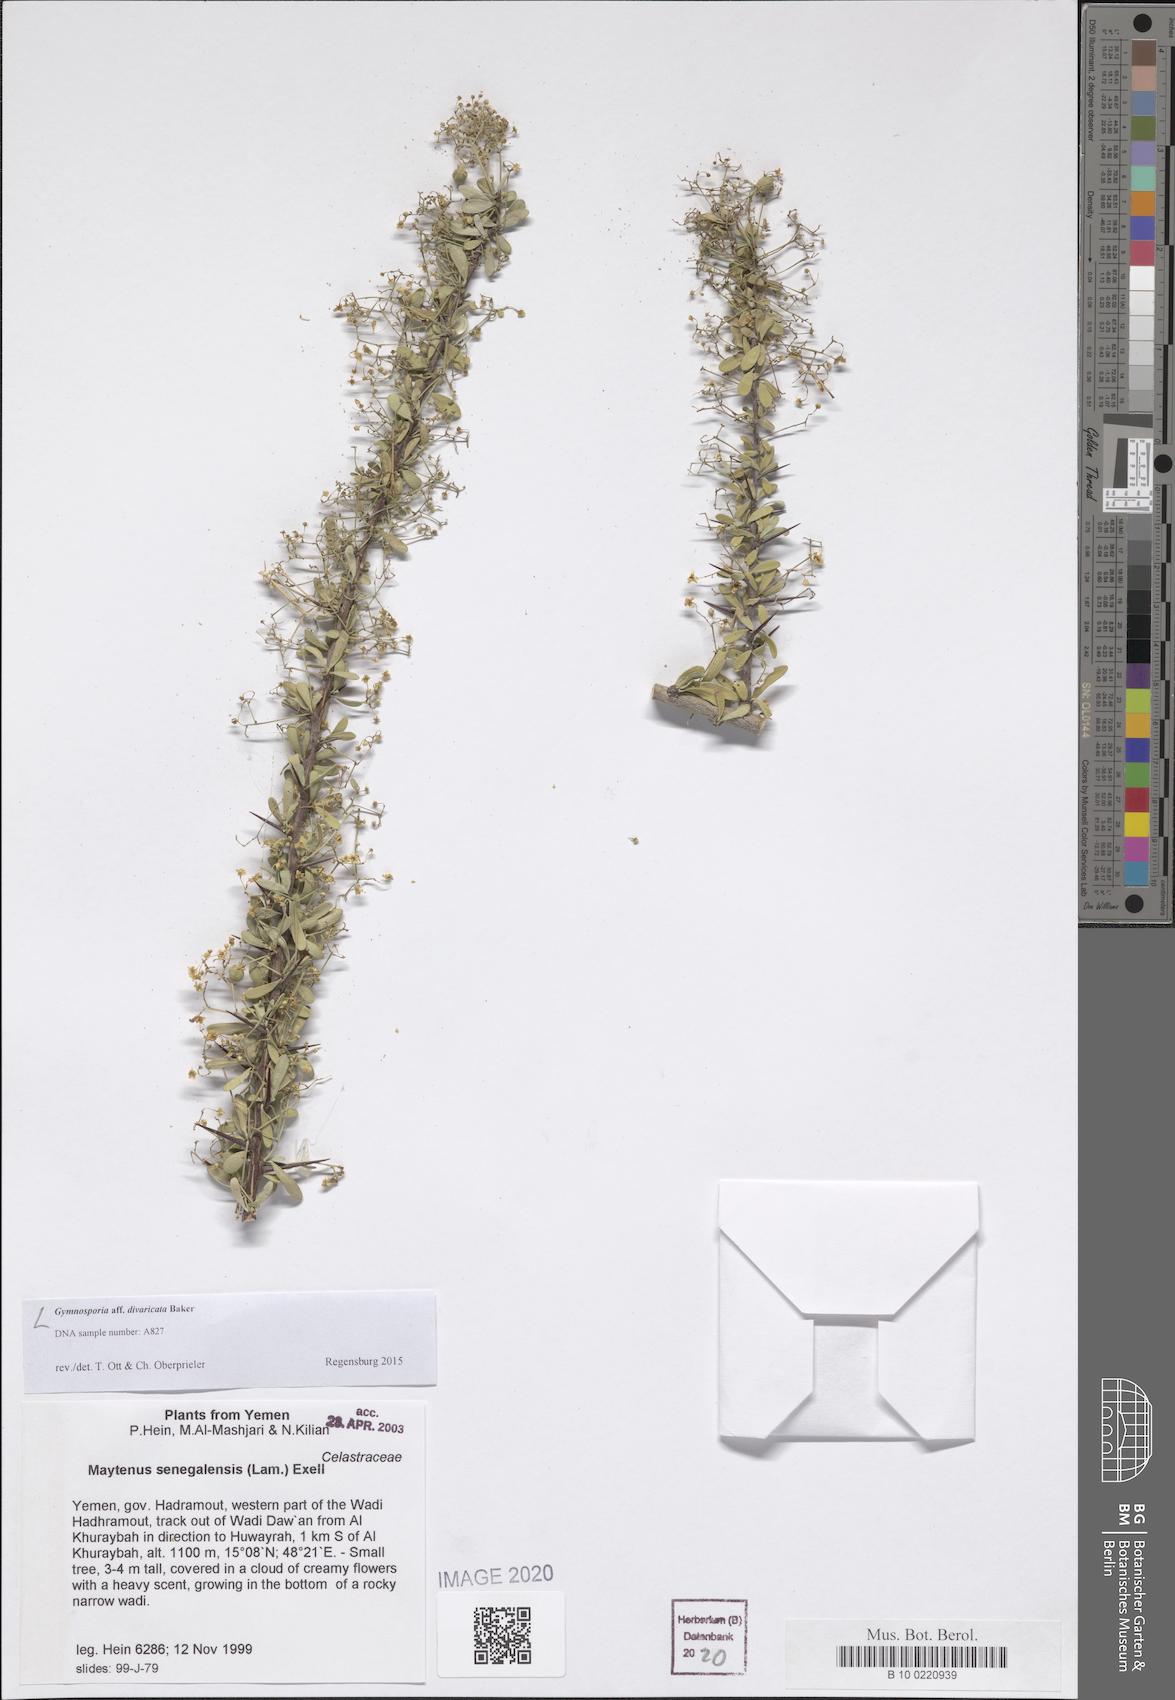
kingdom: Plantae
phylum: Tracheophyta
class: Magnoliopsida
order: Celastrales
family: Celastraceae
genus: Gymnosporia
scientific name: Gymnosporia divaricata
